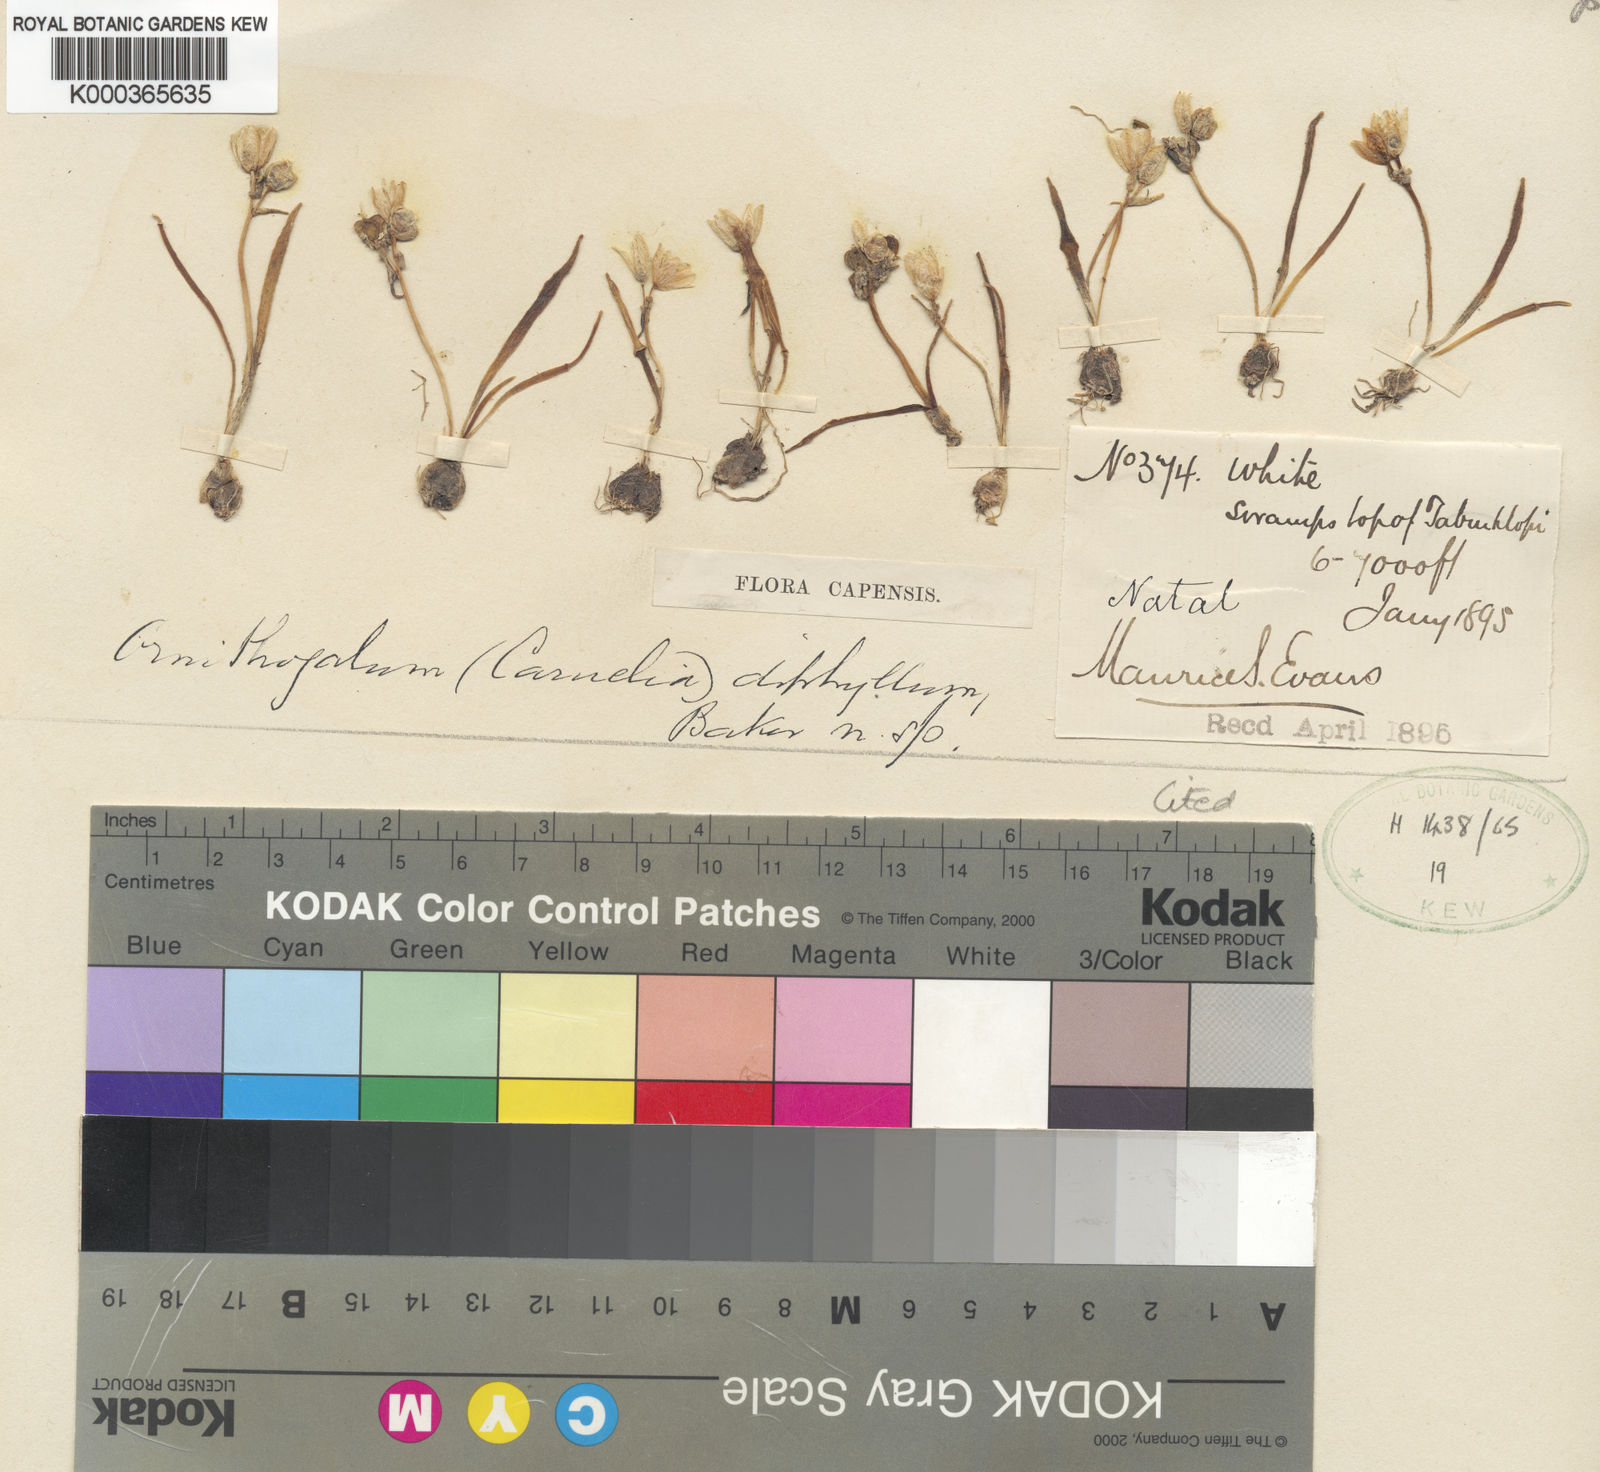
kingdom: Plantae
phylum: Tracheophyta
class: Liliopsida
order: Asparagales
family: Asparagaceae
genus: Albuca
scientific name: Albuca bifolia
